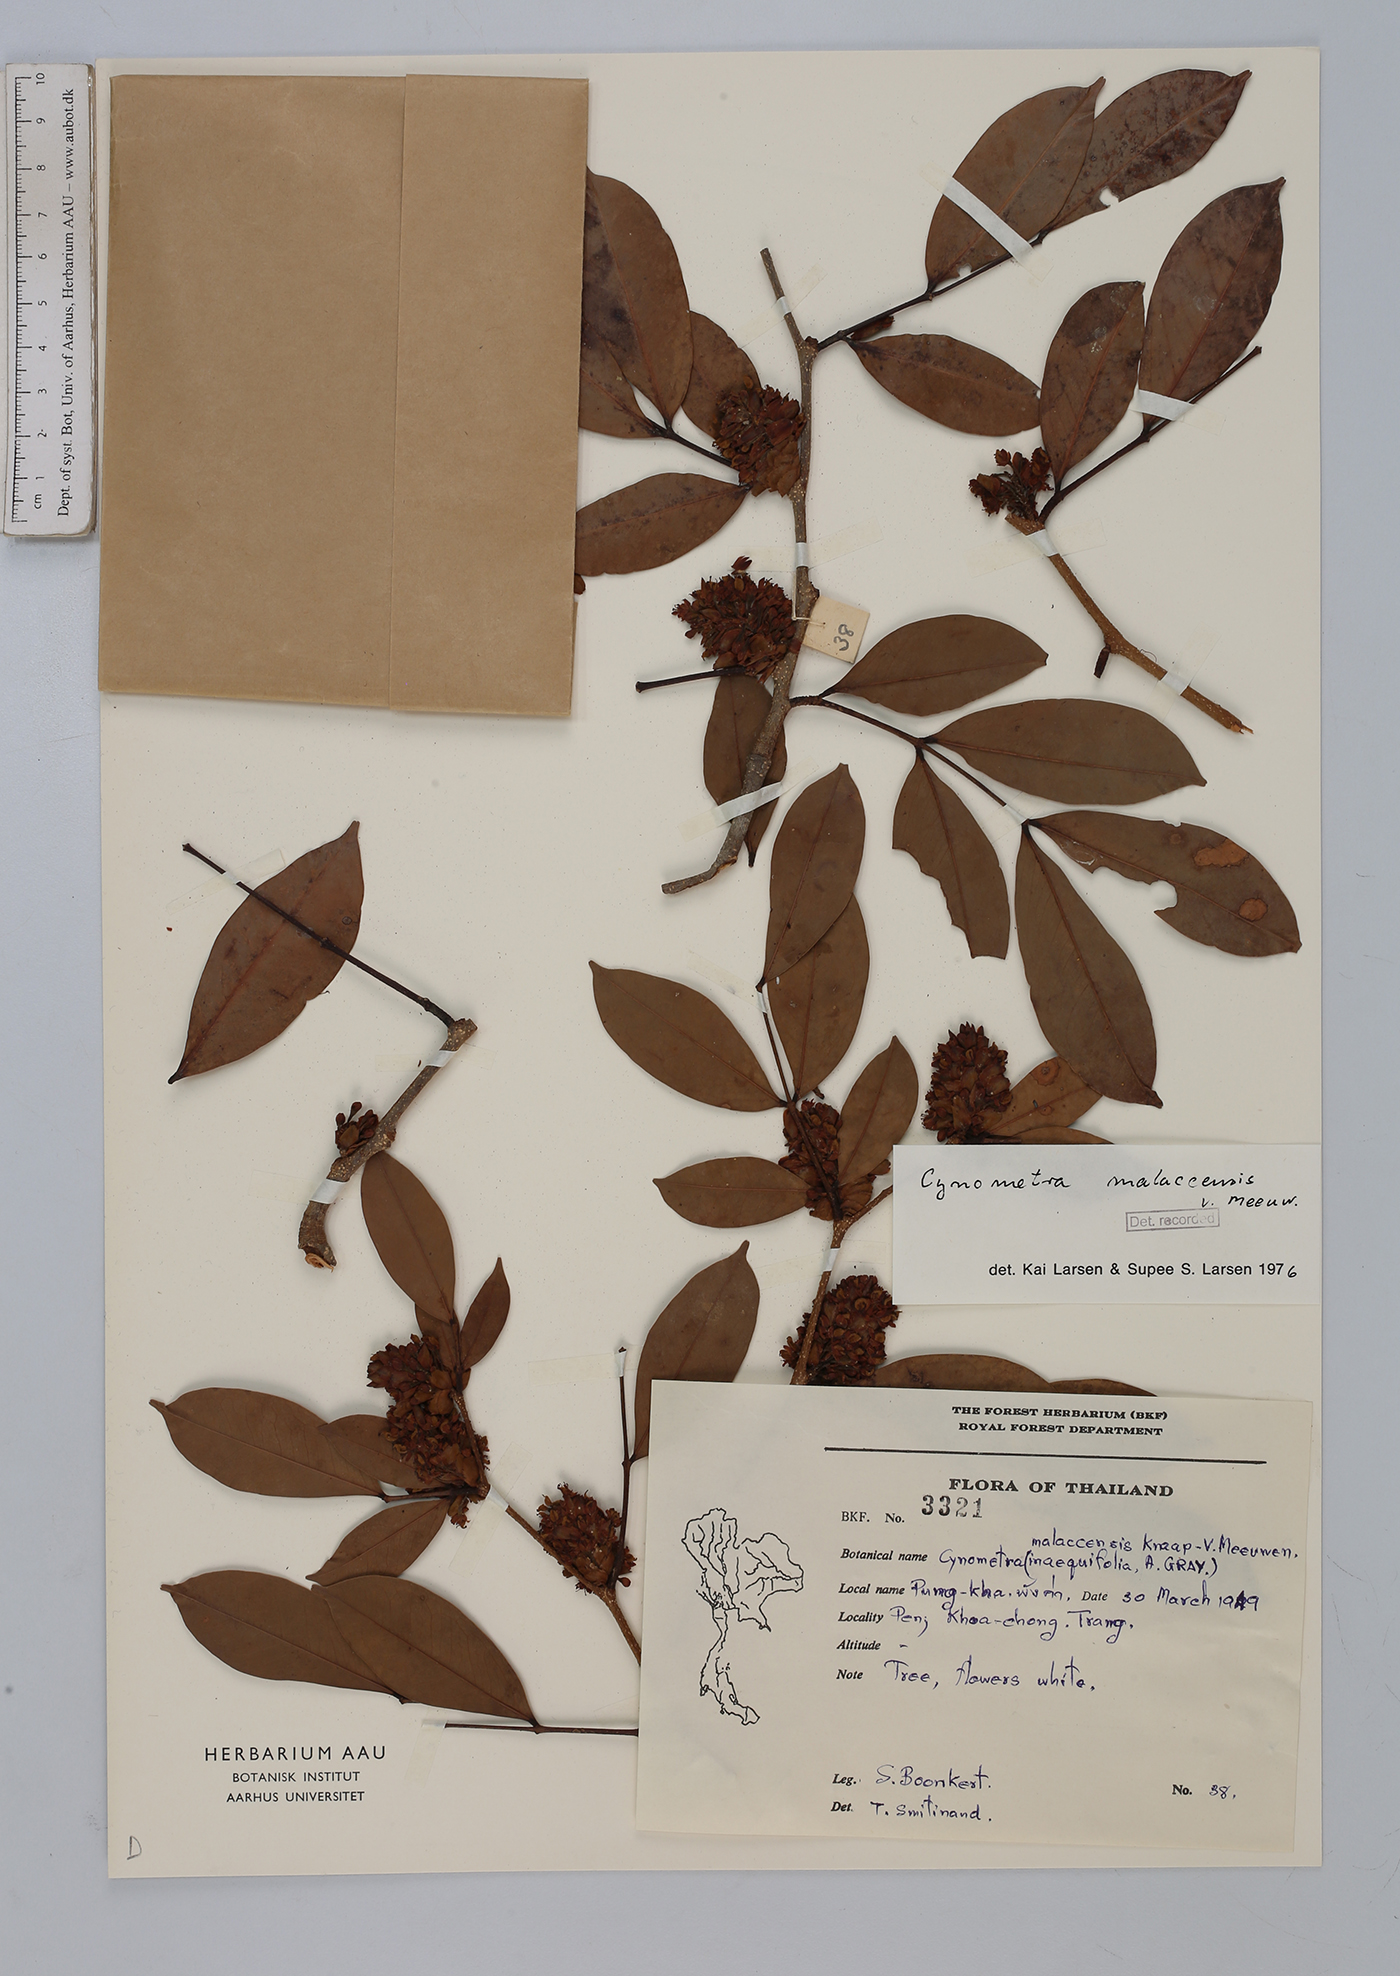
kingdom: Plantae
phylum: Tracheophyta
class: Magnoliopsida
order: Fabales
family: Fabaceae
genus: Cynometra
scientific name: Cynometra malaccensis
